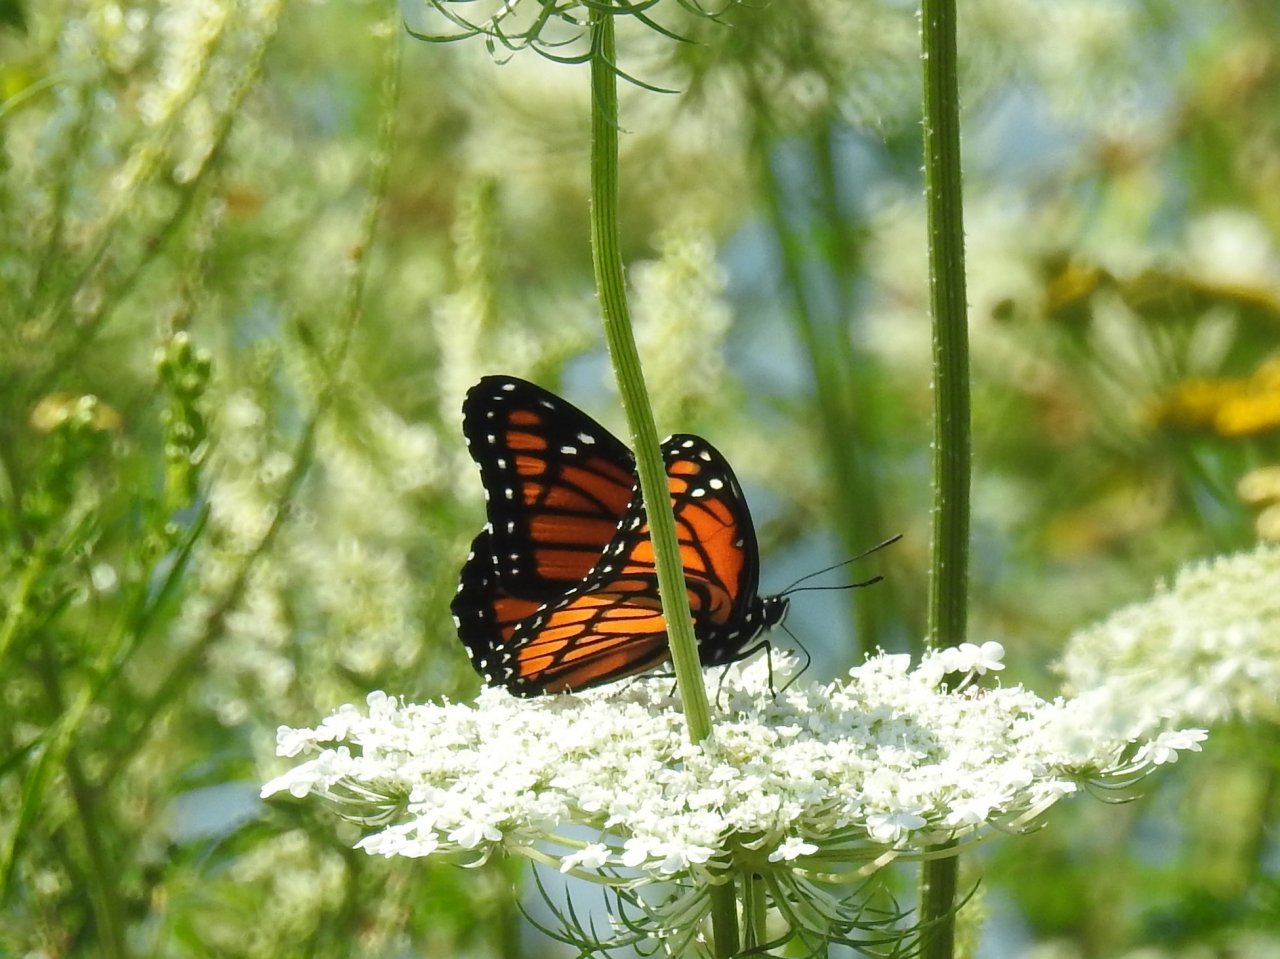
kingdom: Animalia
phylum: Arthropoda
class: Insecta
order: Lepidoptera
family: Nymphalidae
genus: Limenitis
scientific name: Limenitis archippus
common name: Viceroy
